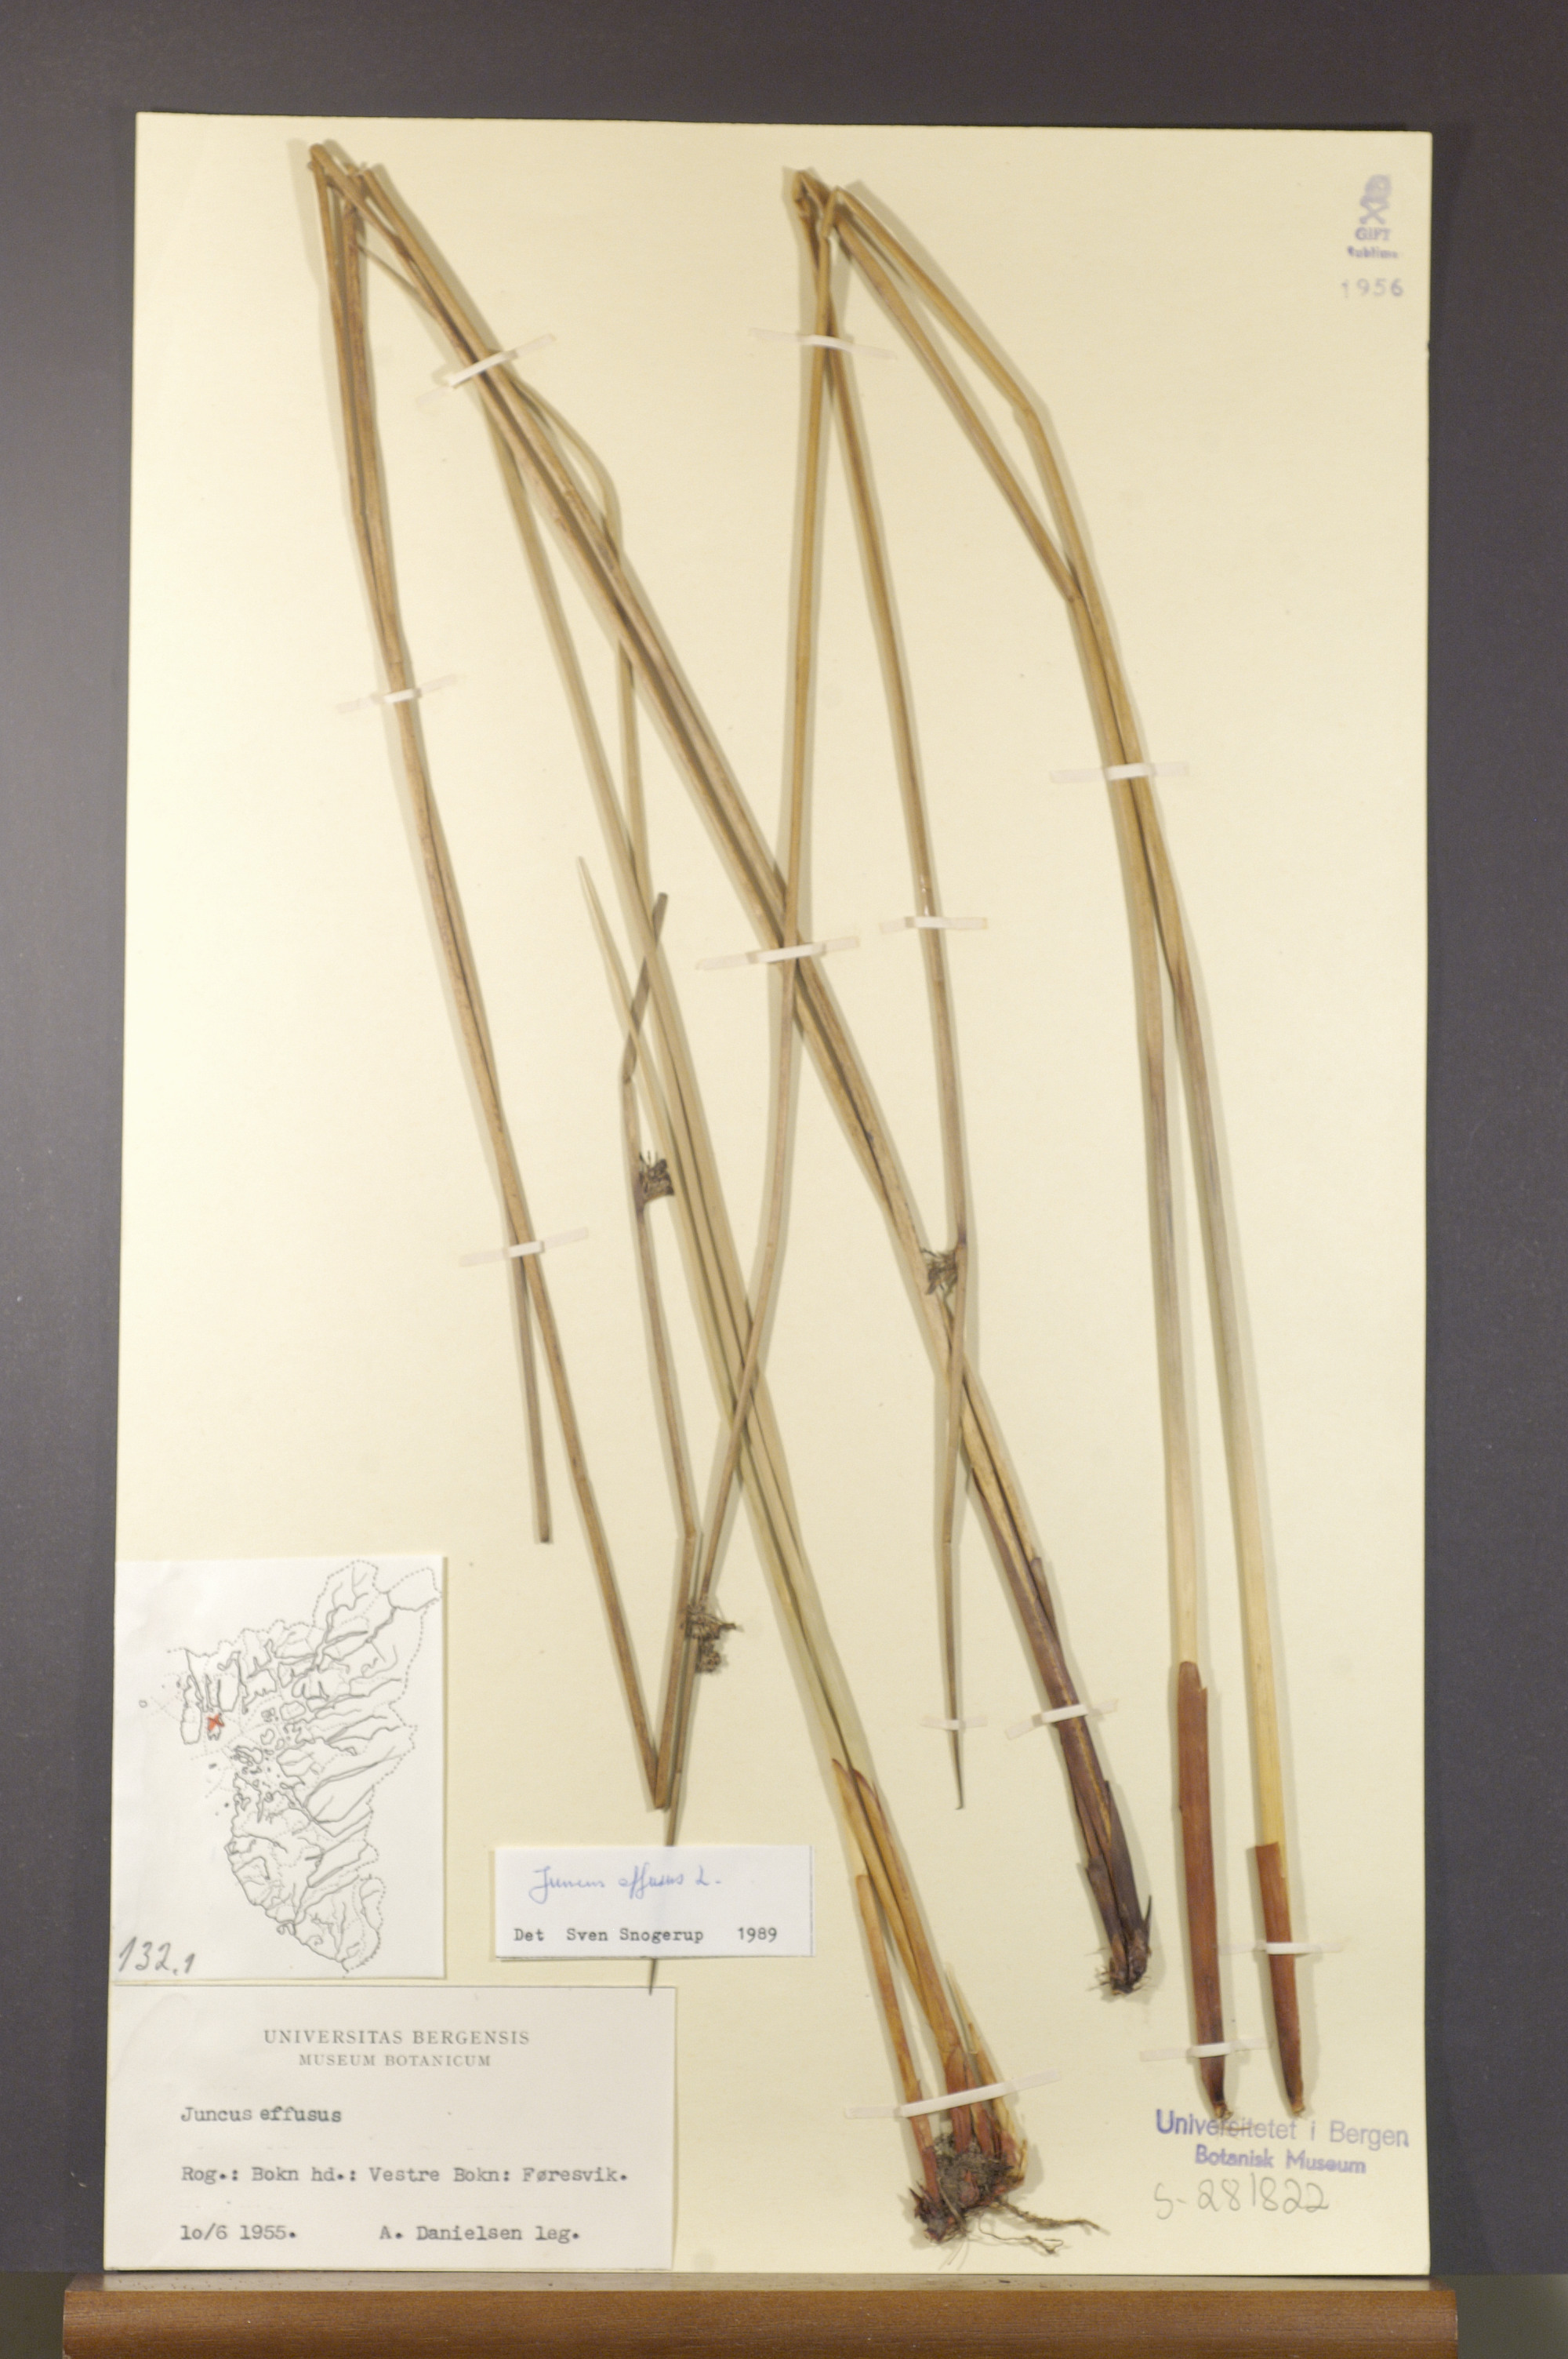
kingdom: Plantae
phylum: Tracheophyta
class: Liliopsida
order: Poales
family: Juncaceae
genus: Juncus
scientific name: Juncus effusus
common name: Soft rush
